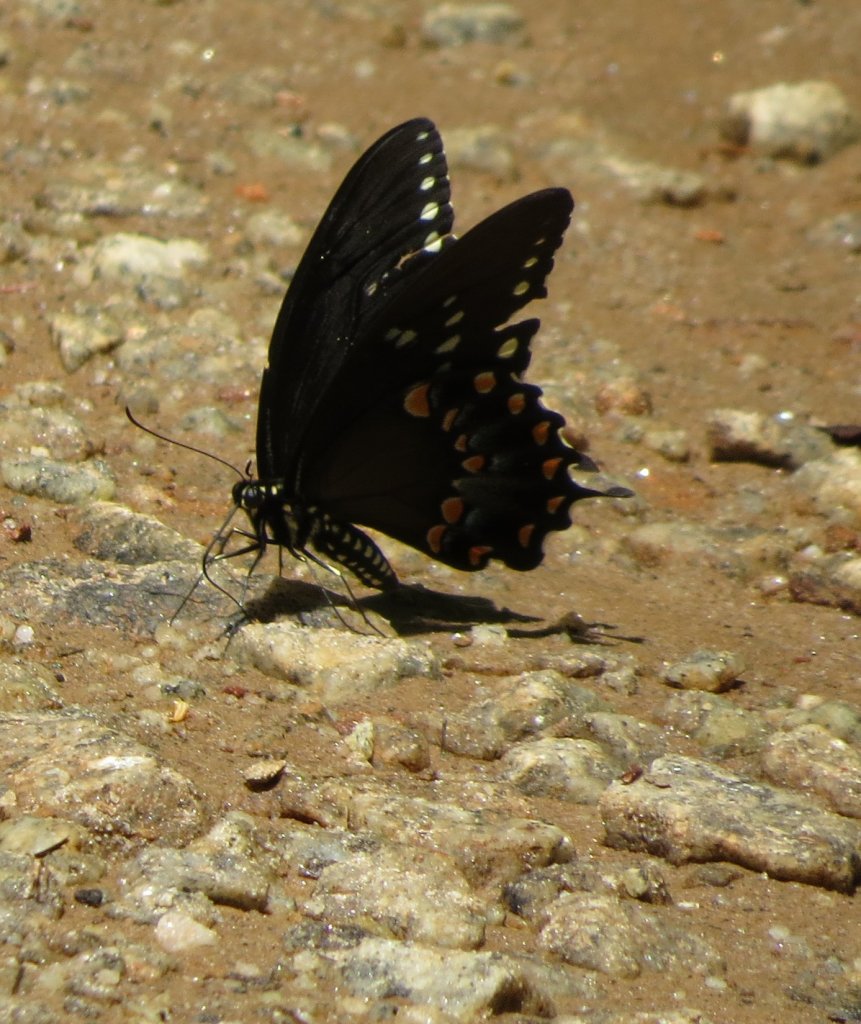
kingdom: Animalia
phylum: Arthropoda
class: Insecta
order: Lepidoptera
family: Papilionidae
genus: Pterourus
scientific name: Pterourus troilus
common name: Spicebush Swallowtail
